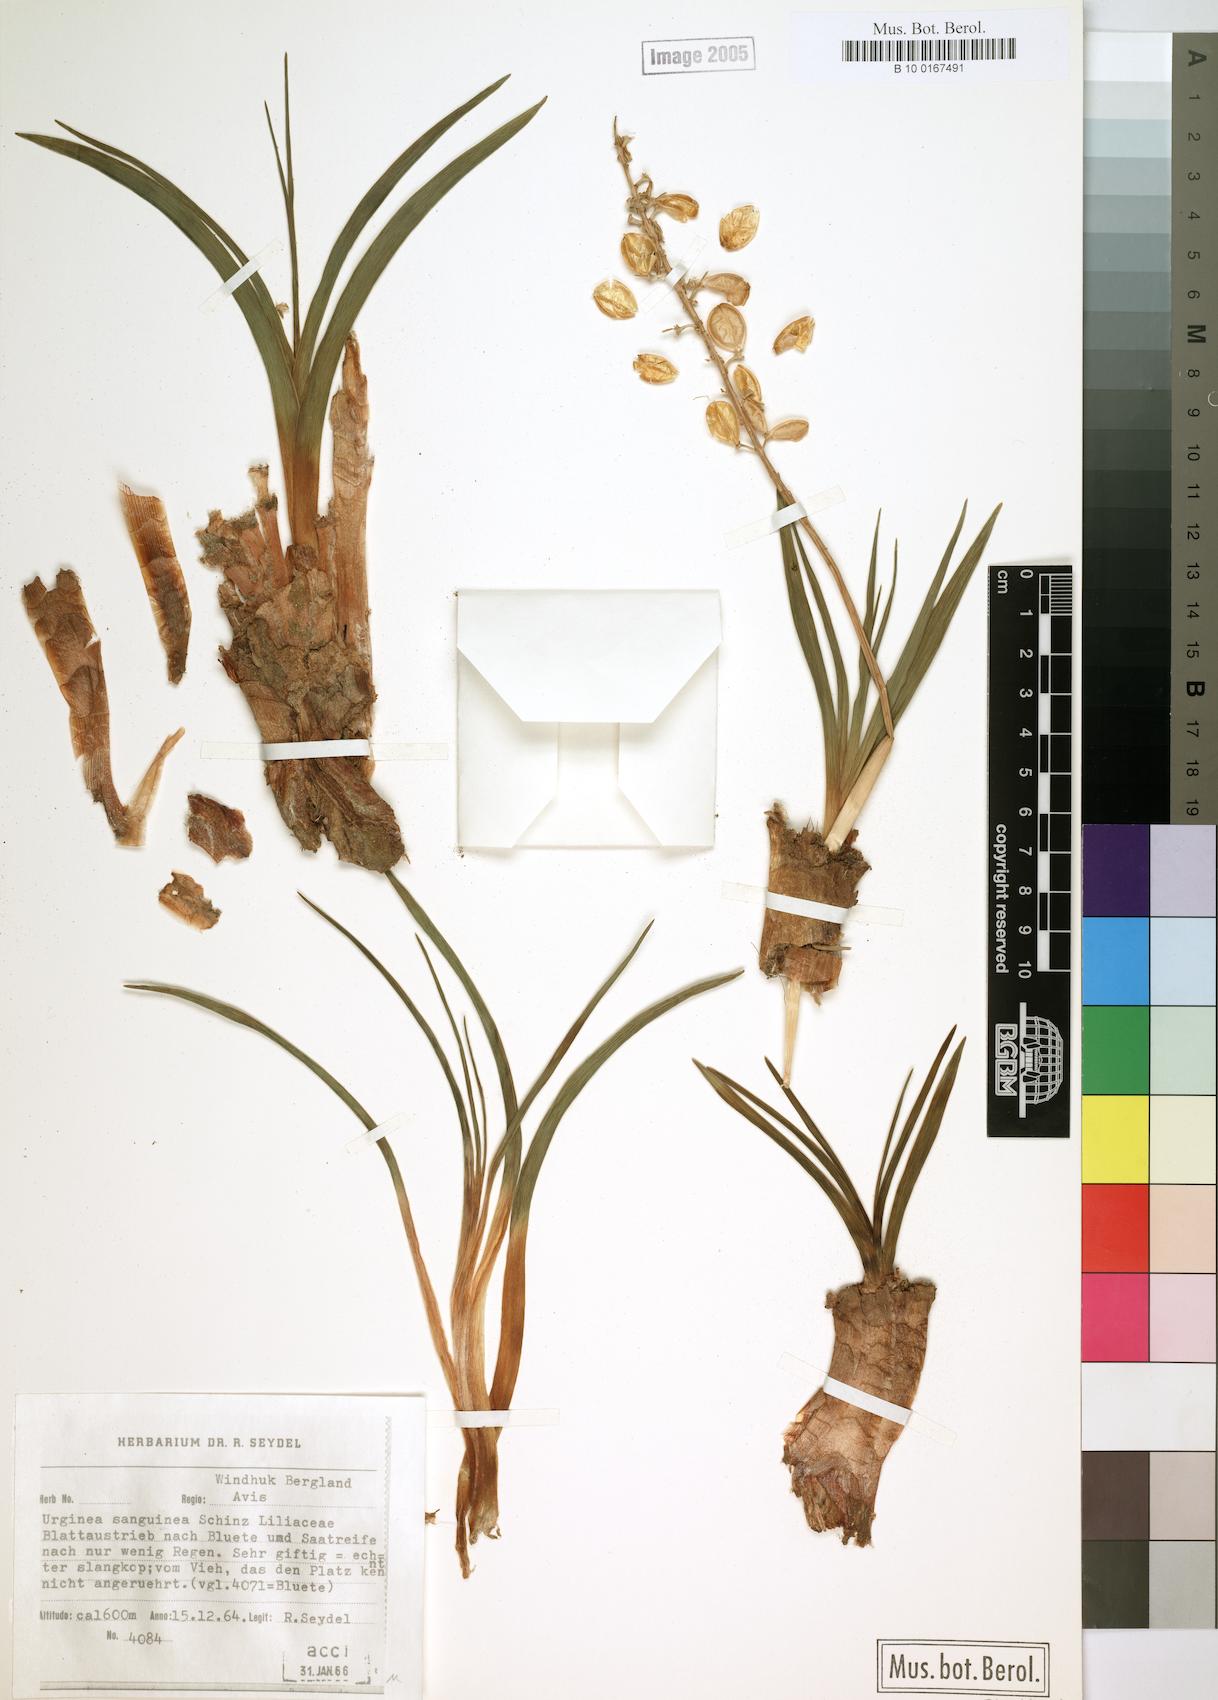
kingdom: Plantae
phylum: Tracheophyta
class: Liliopsida
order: Asparagales
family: Asparagaceae
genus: Drimia
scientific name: Drimia sanguinea
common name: Transvaal slangkop
